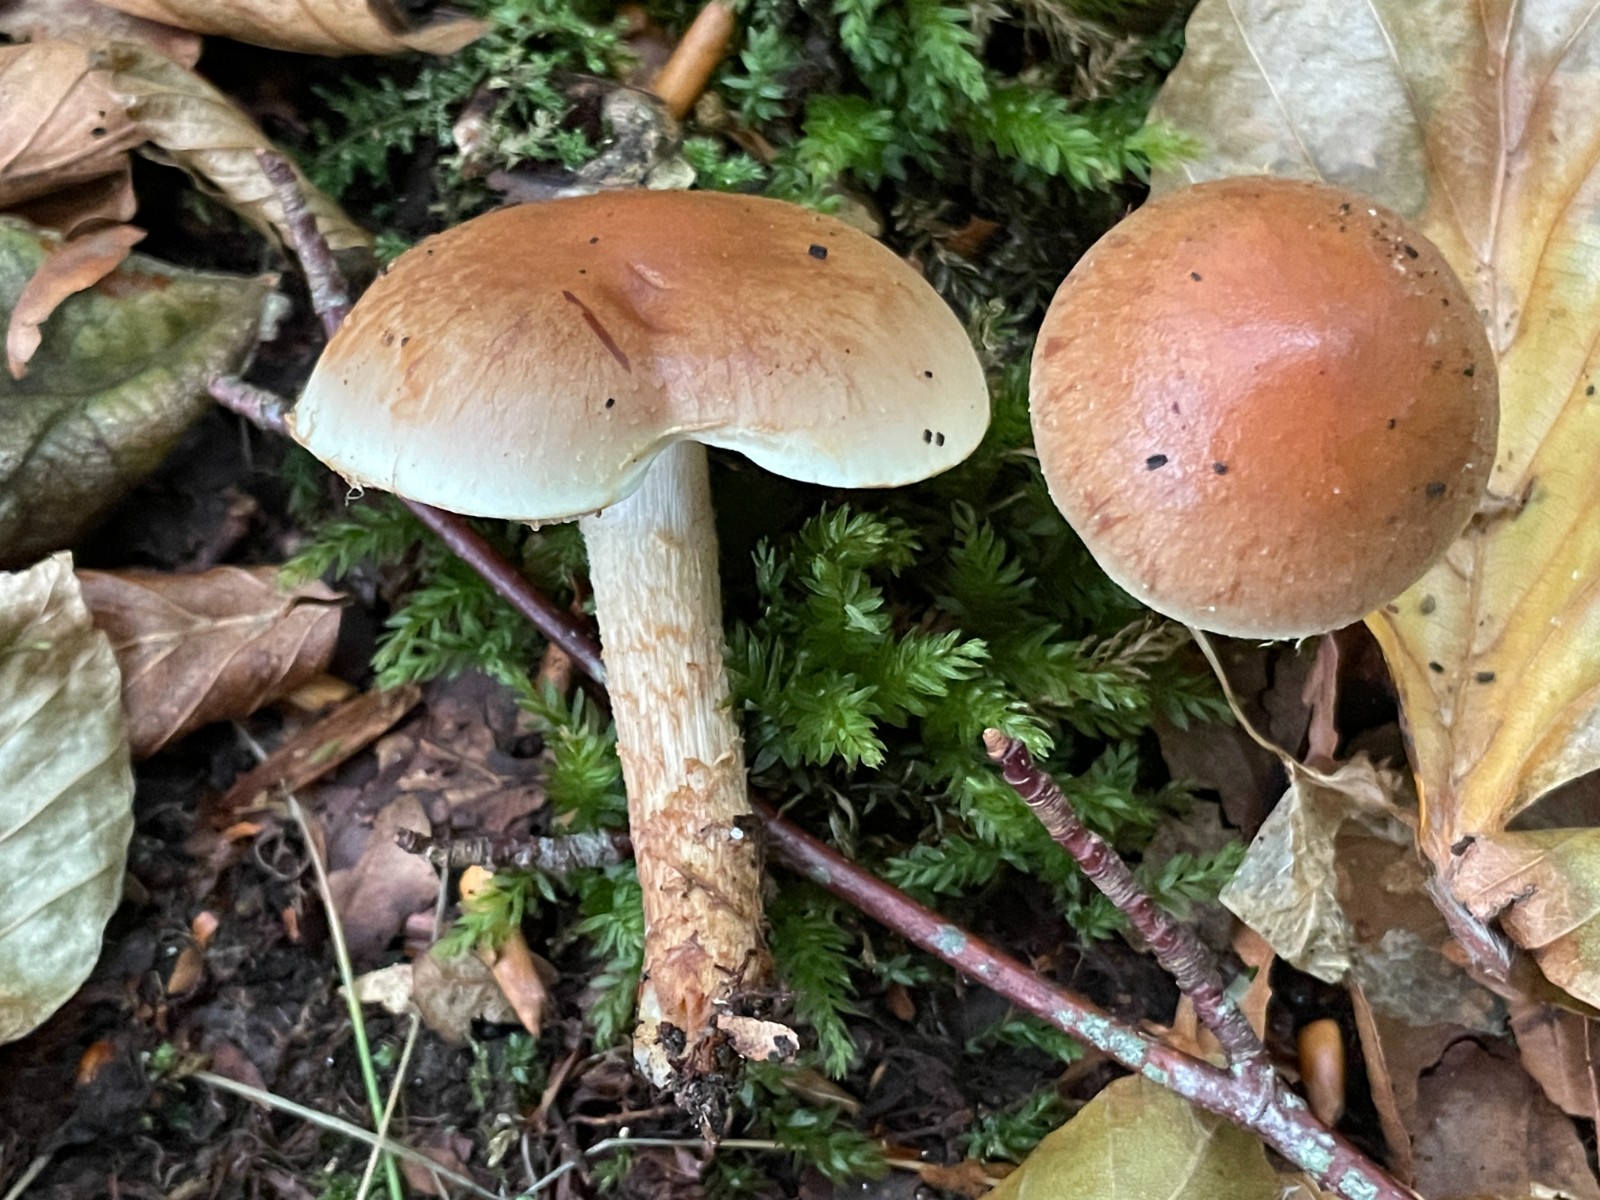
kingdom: Fungi
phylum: Basidiomycota
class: Agaricomycetes
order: Agaricales
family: Strophariaceae
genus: Hypholoma
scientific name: Hypholoma lateritium
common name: teglrød svovlhat
